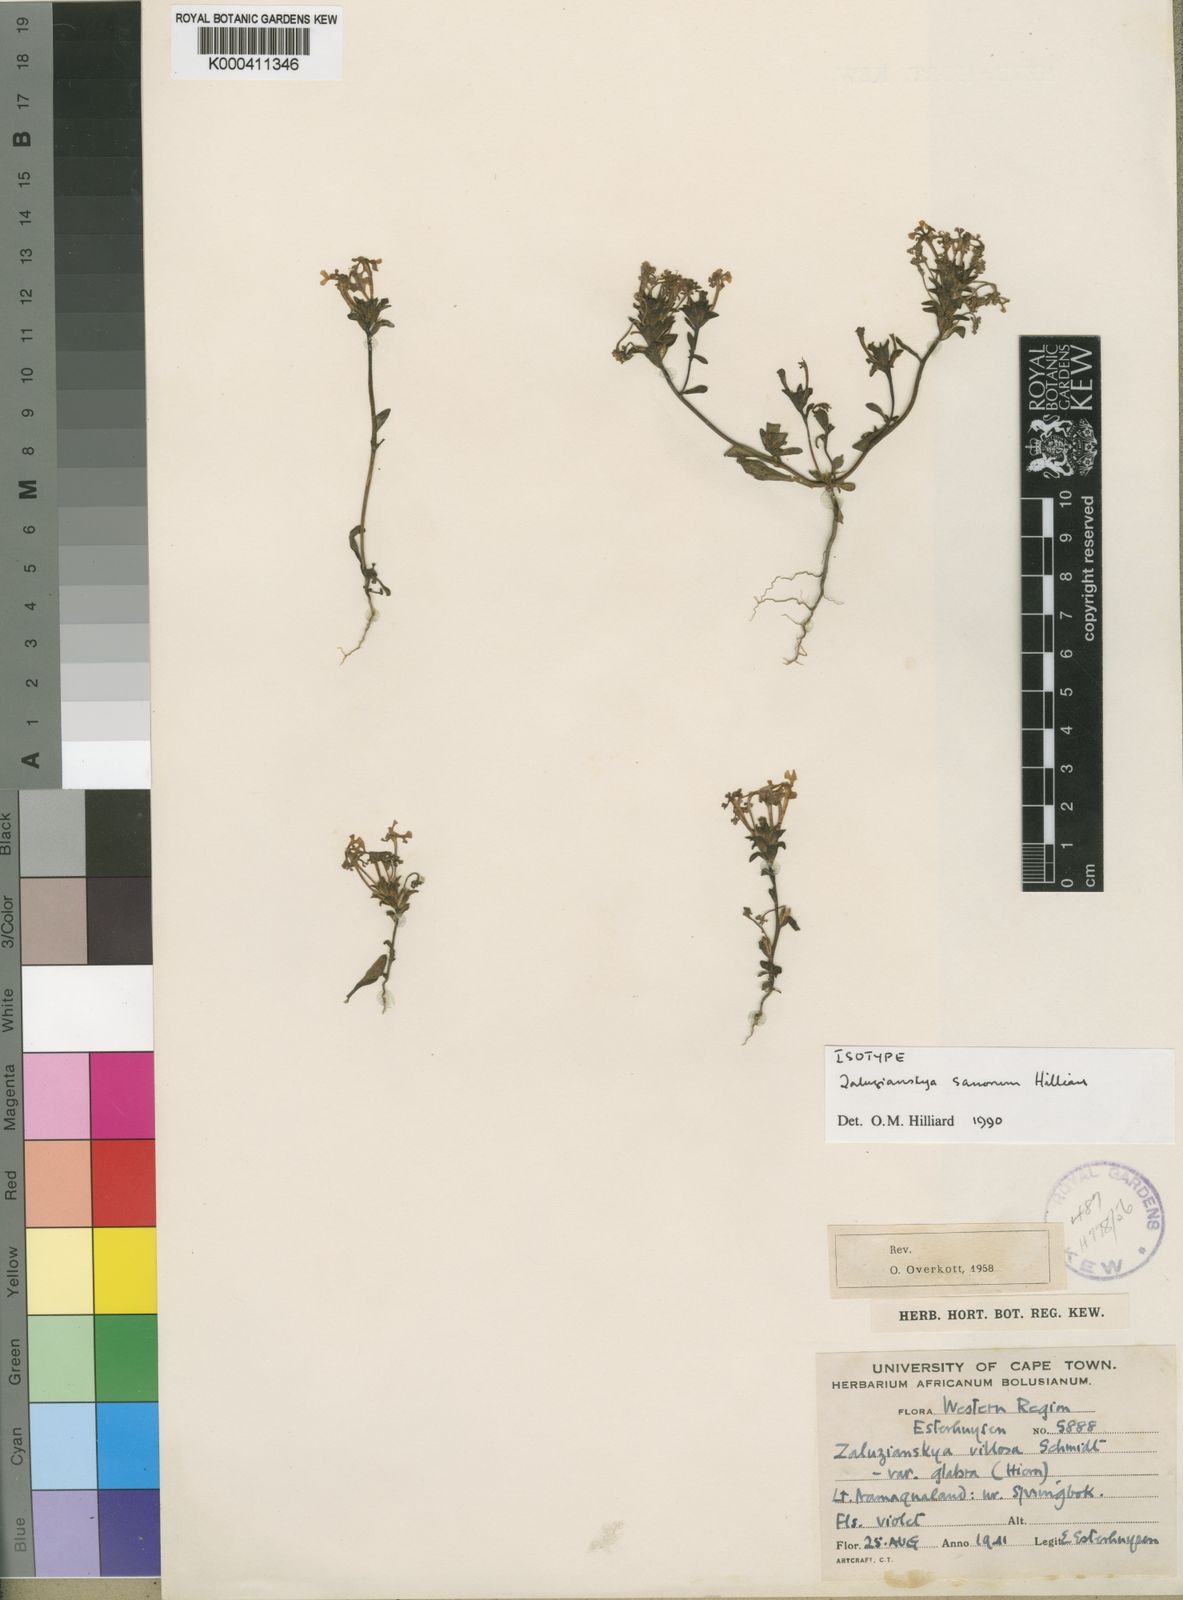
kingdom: Plantae
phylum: Tracheophyta
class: Magnoliopsida
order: Lamiales
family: Scrophulariaceae
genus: Zaluzianskya
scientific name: Zaluzianskya sanorum
